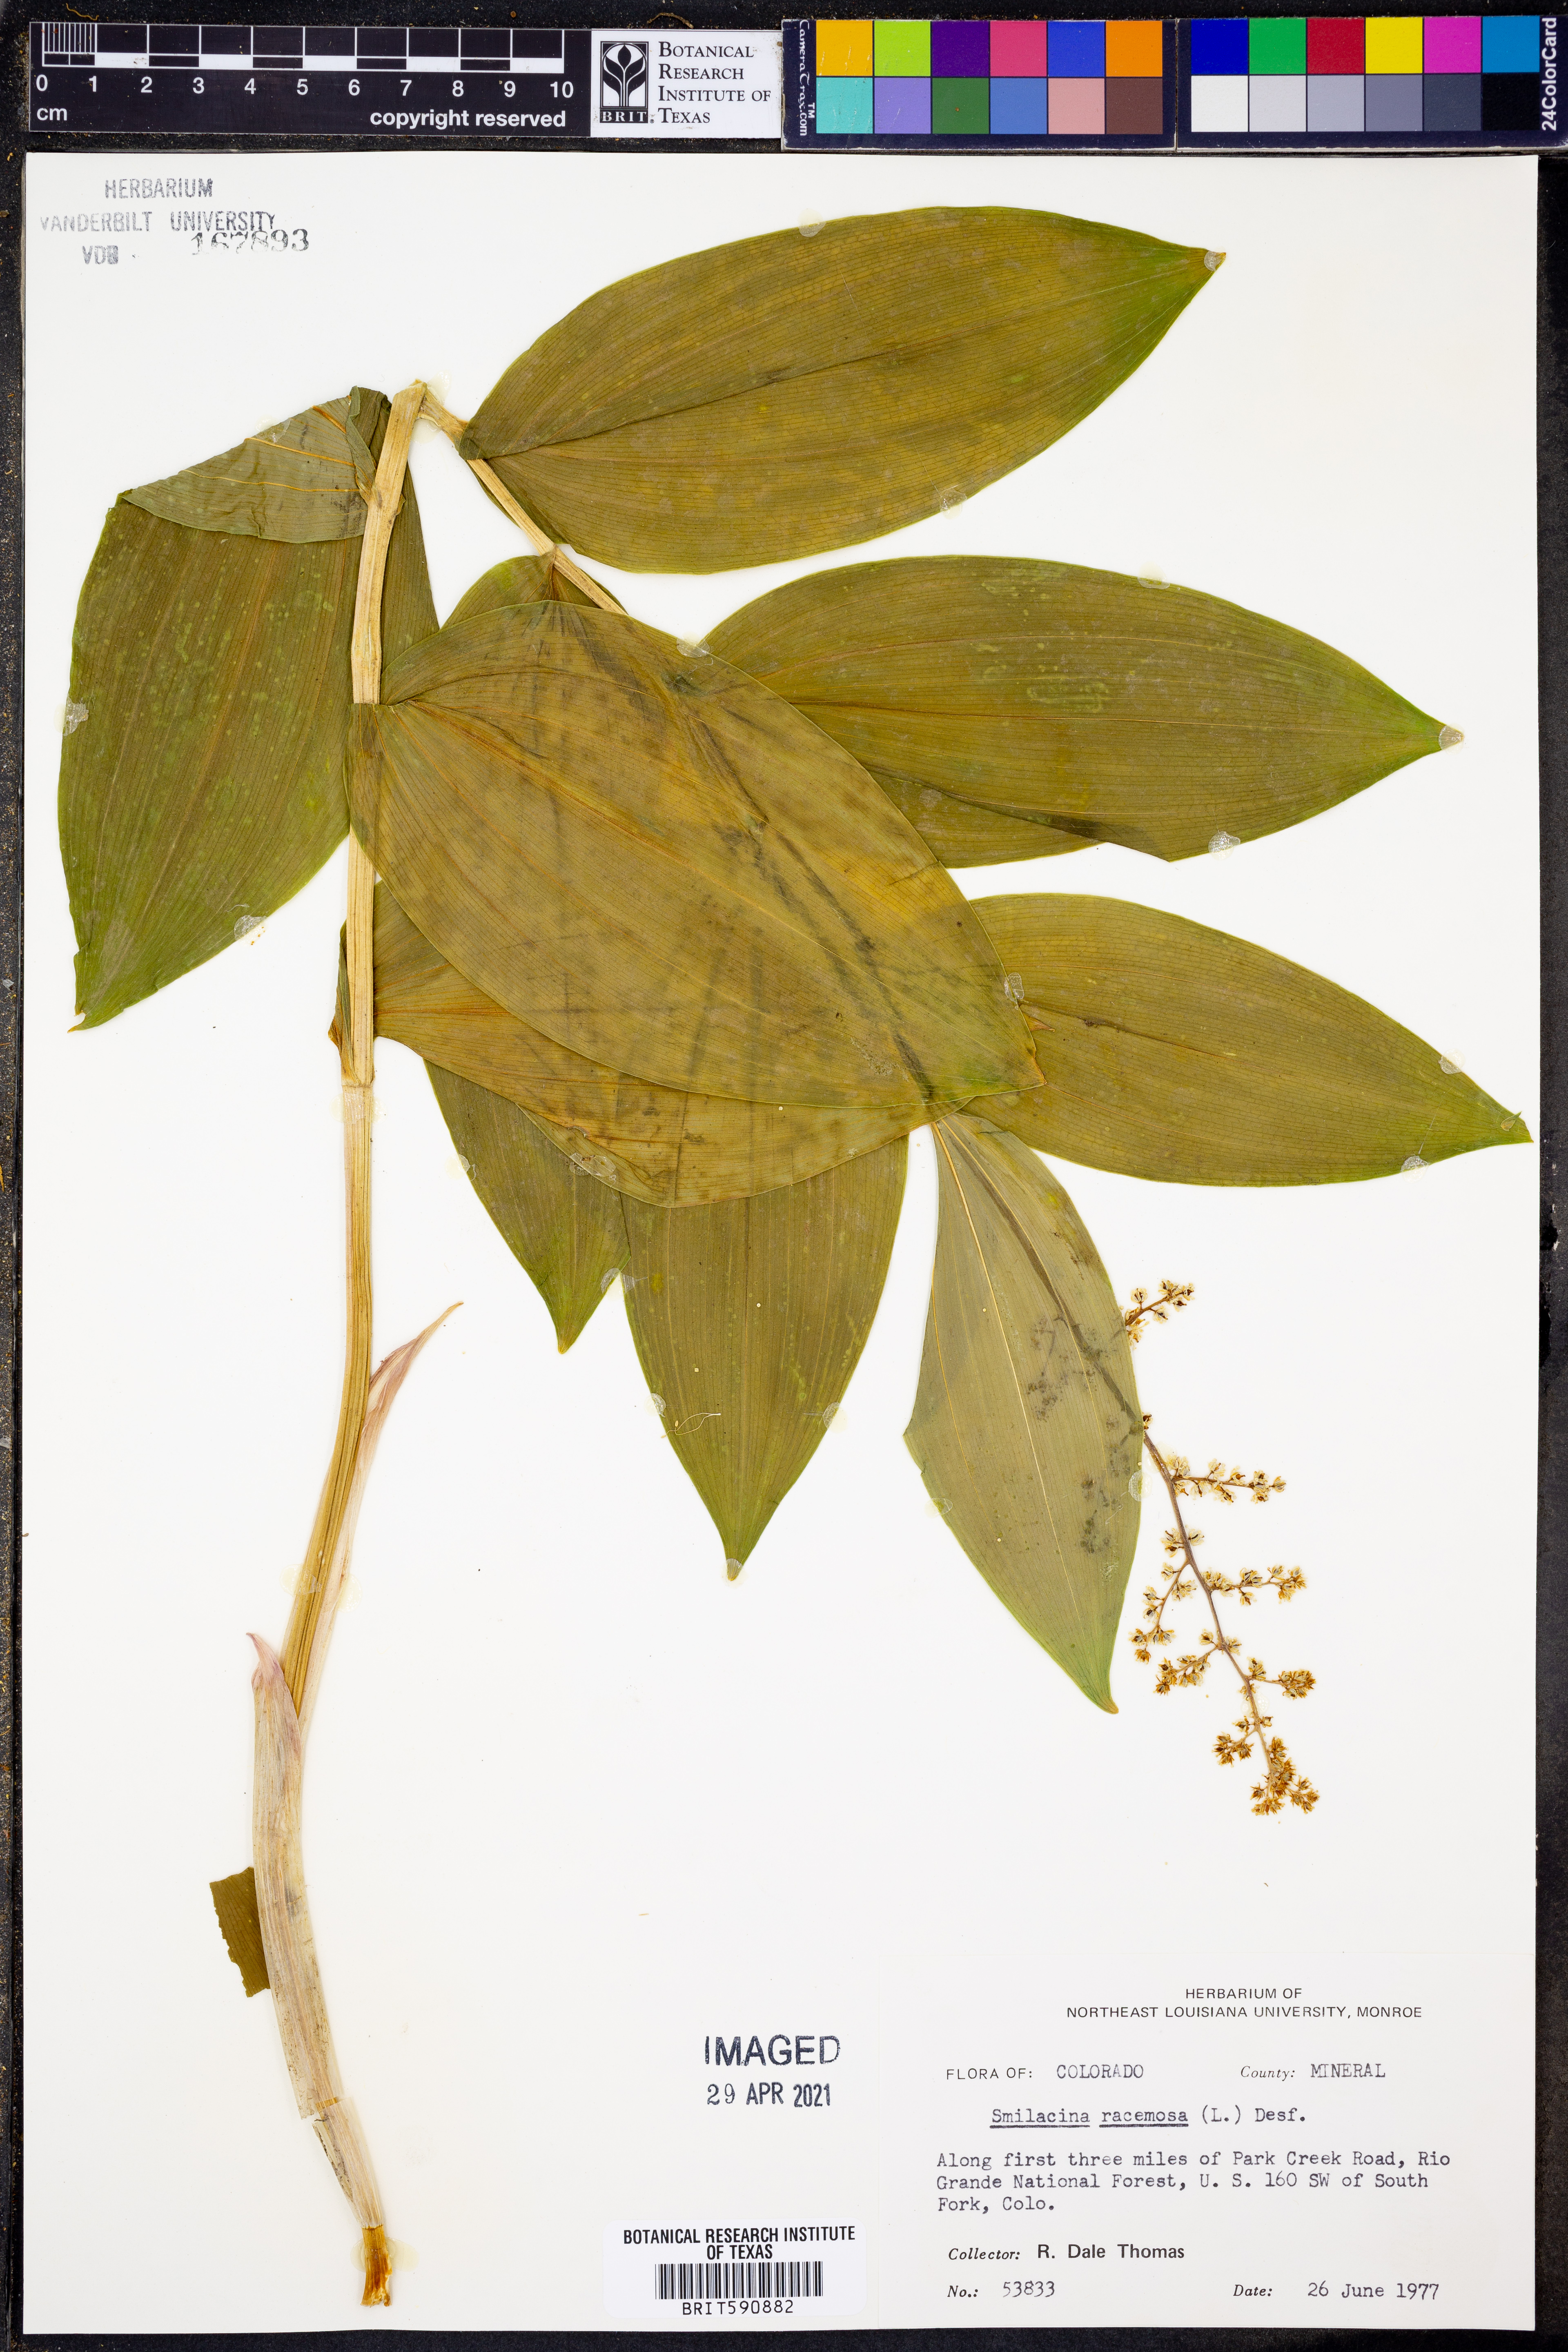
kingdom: Plantae
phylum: Tracheophyta
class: Liliopsida
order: Asparagales
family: Asparagaceae
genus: Maianthemum
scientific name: Maianthemum racemosum
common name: False spikenard
